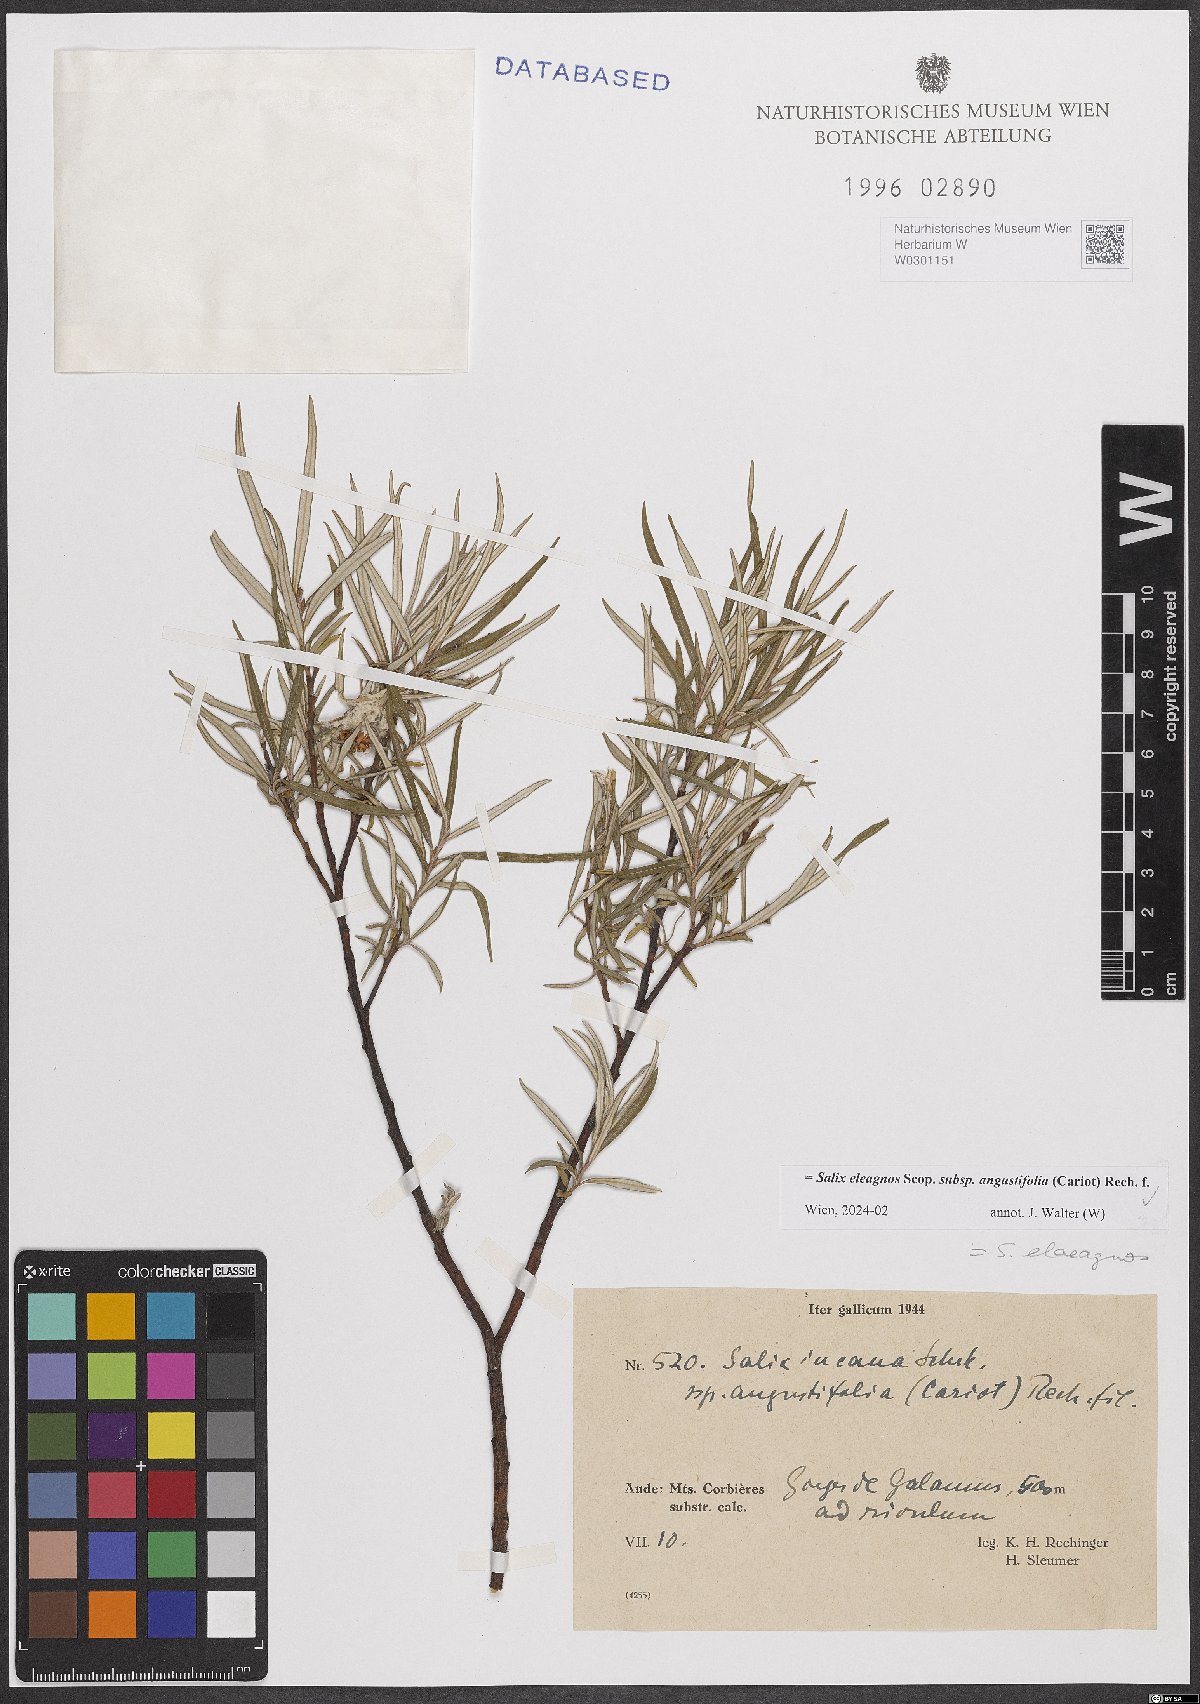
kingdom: Plantae
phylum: Tracheophyta
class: Magnoliopsida
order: Malpighiales
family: Salicaceae
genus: Salix
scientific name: Salix eleagnos
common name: Elaeagnus willow
